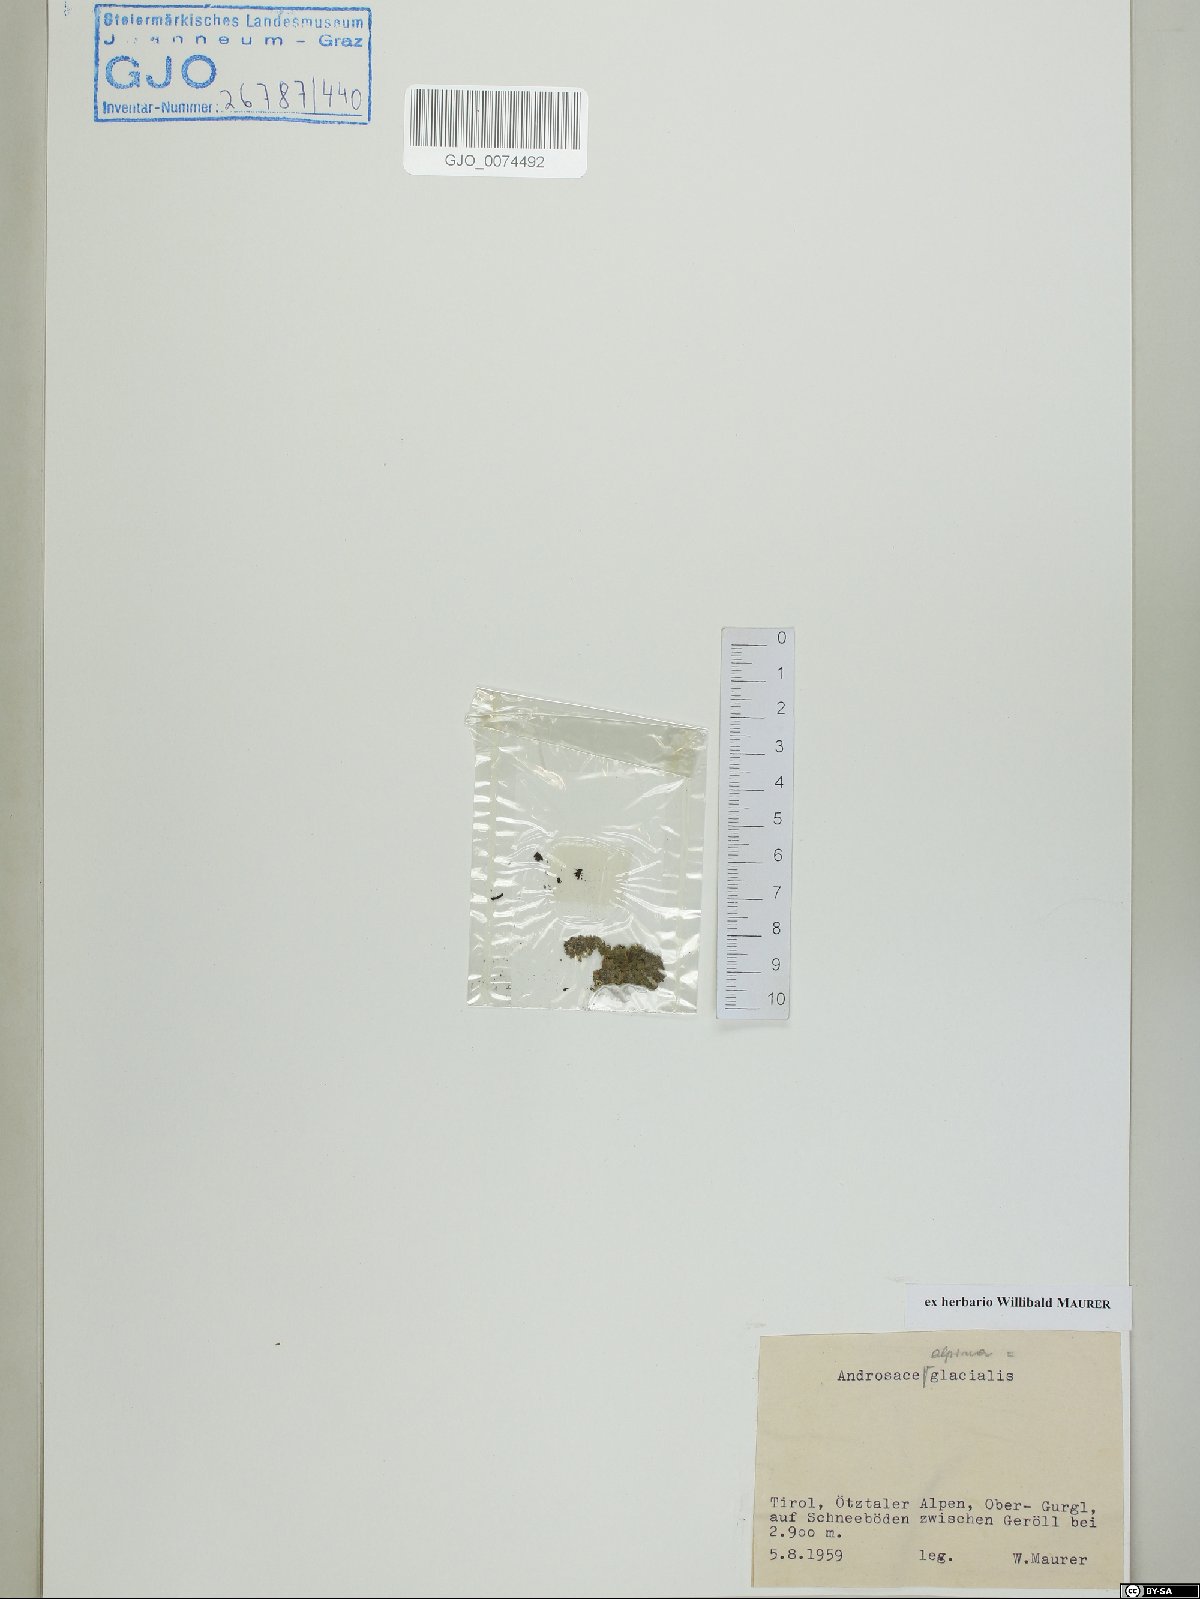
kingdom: Plantae
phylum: Tracheophyta
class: Magnoliopsida
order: Ericales
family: Primulaceae
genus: Androsace
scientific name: Androsace alpina
